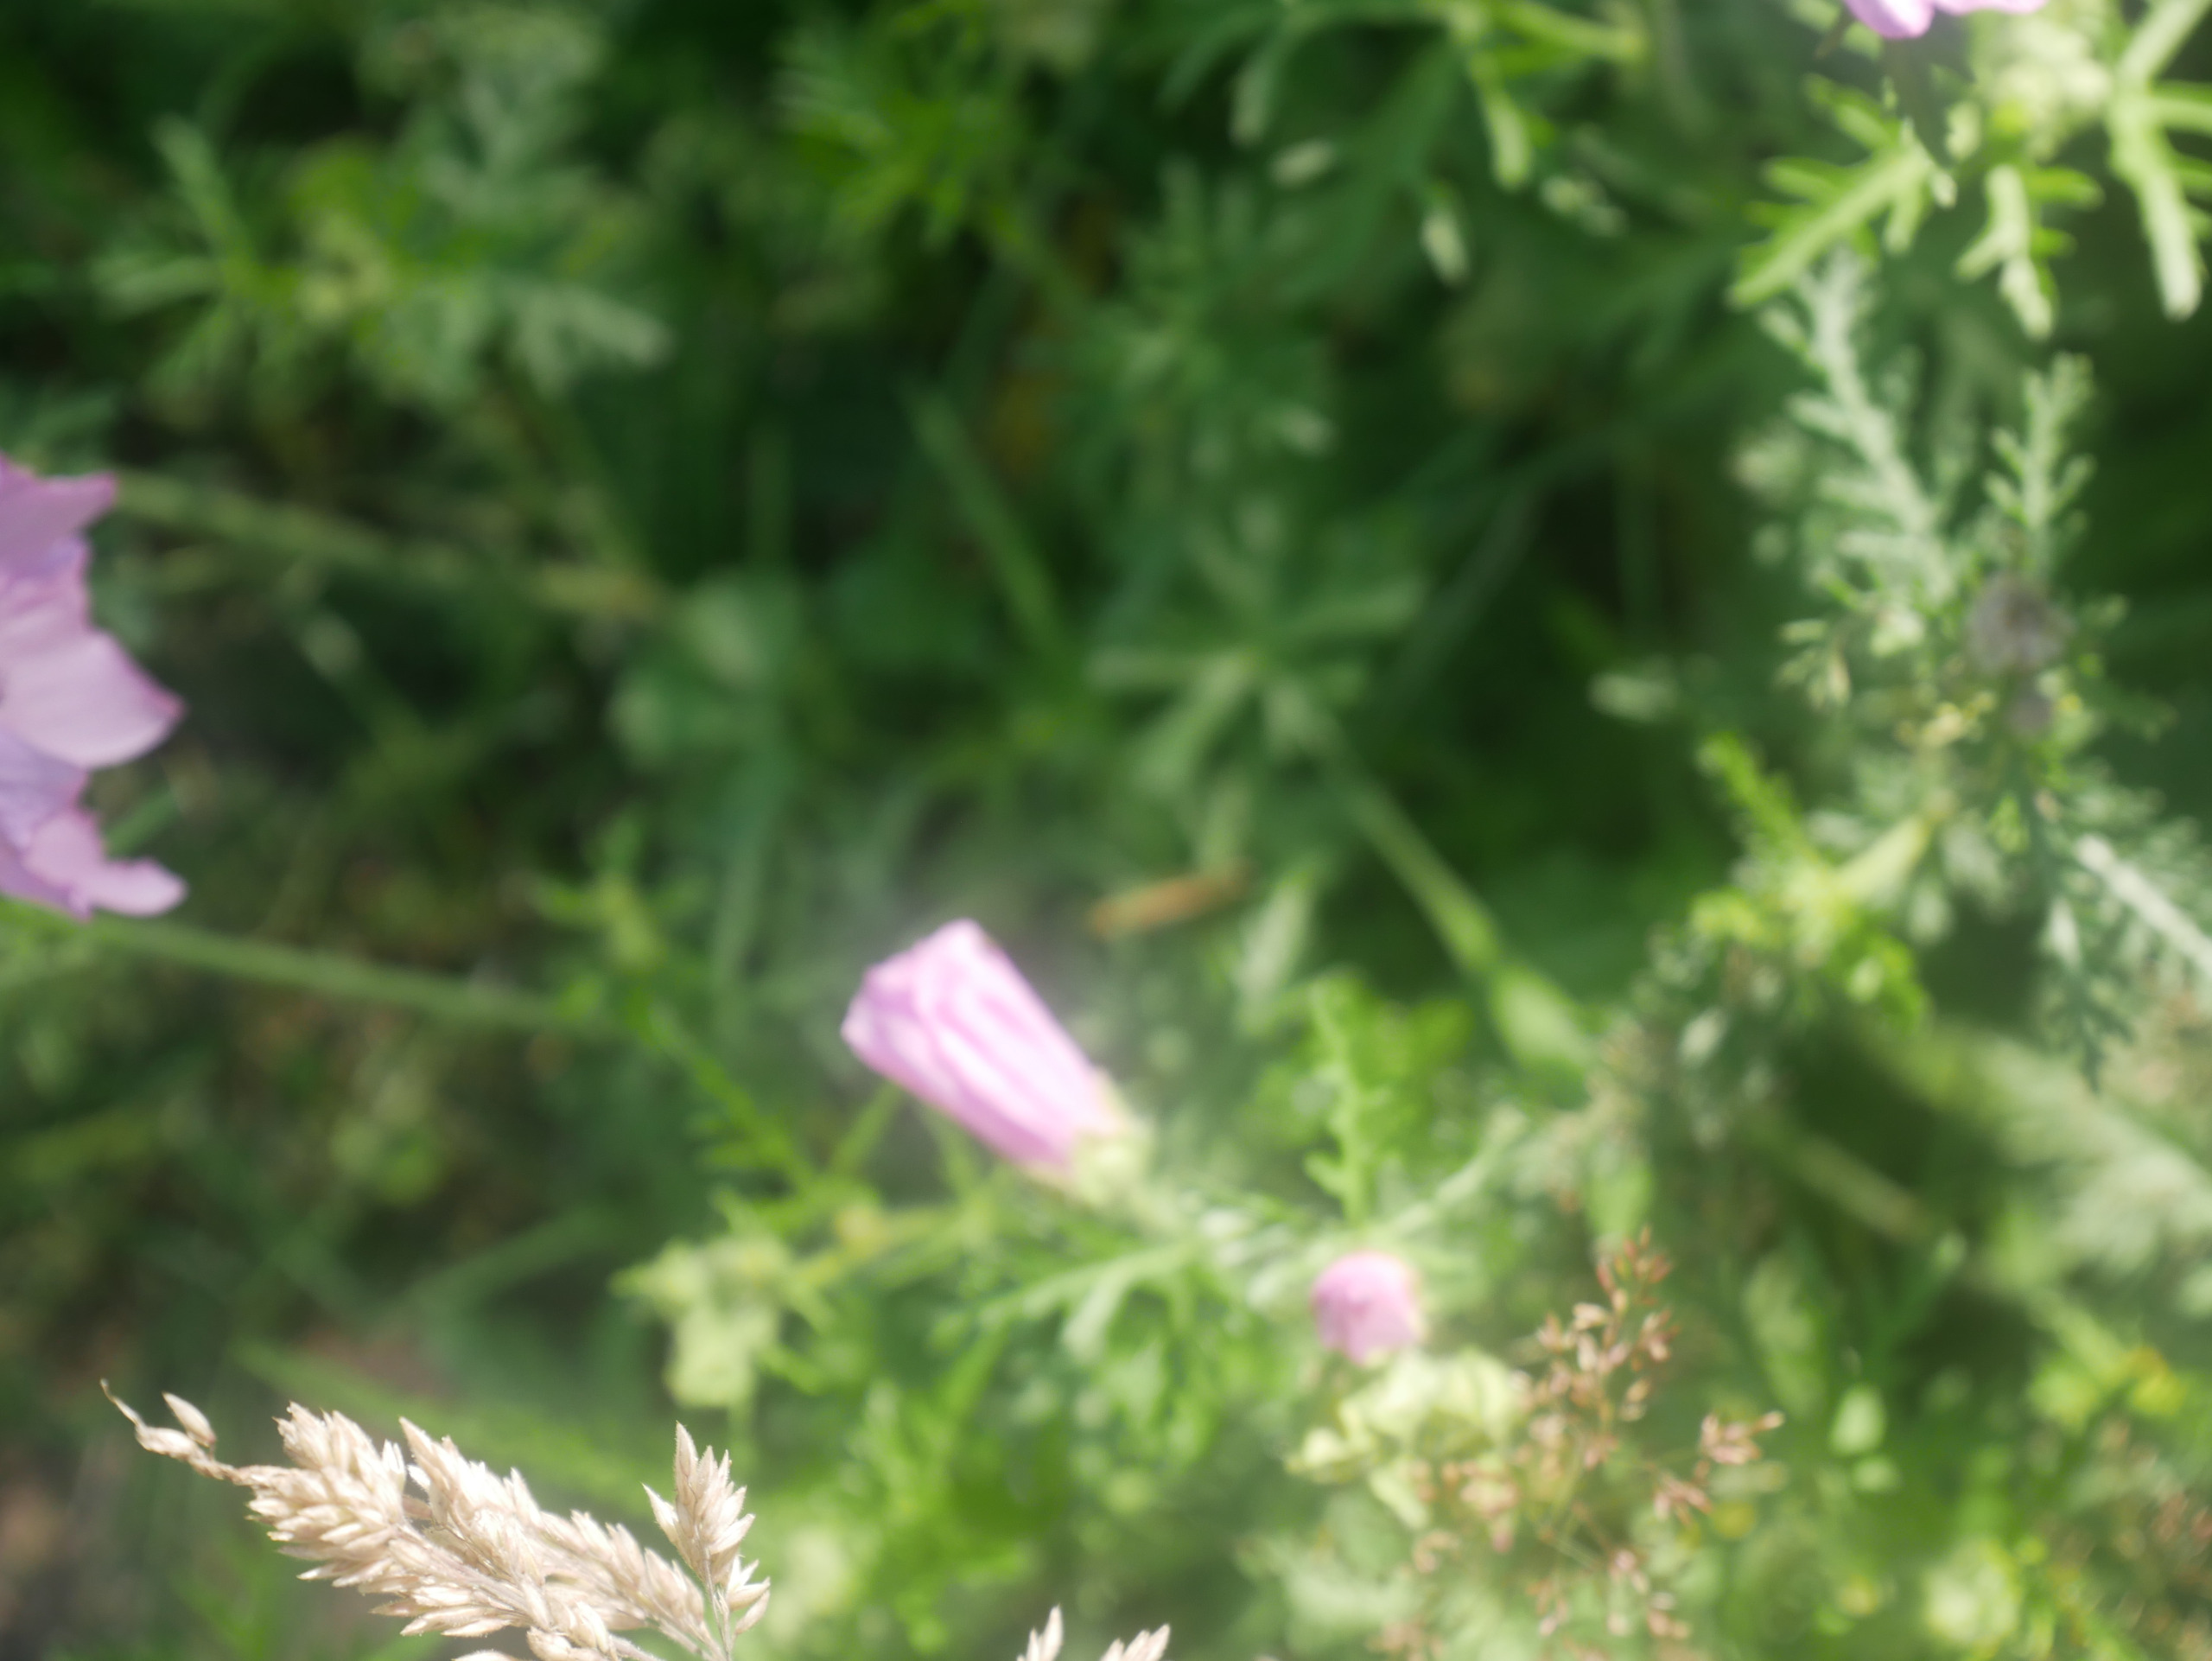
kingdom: Plantae
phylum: Tracheophyta
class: Magnoliopsida
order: Malvales
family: Malvaceae
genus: Malva
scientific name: Malva moschata
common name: Moskus-katost
